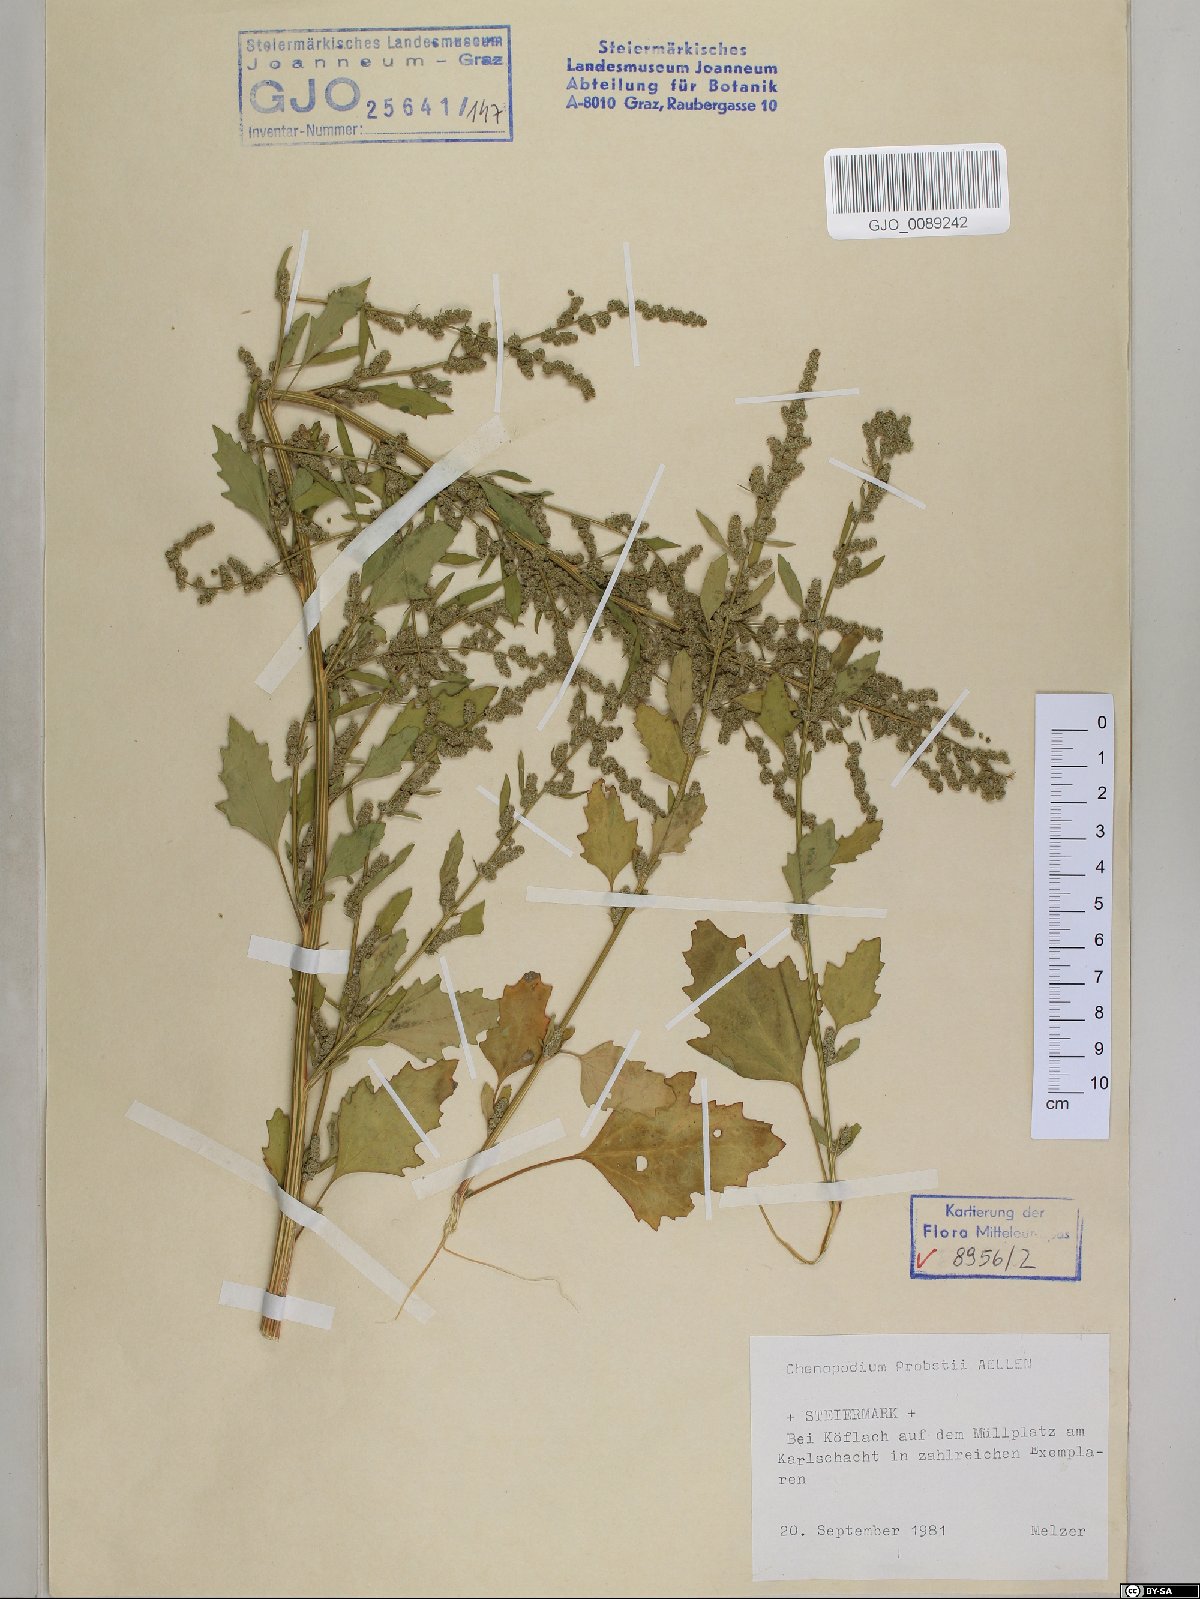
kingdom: Plantae
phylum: Tracheophyta
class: Magnoliopsida
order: Caryophyllales
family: Amaranthaceae
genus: Chenopodium
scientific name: Chenopodium probstii
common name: Probst's goosefoot
